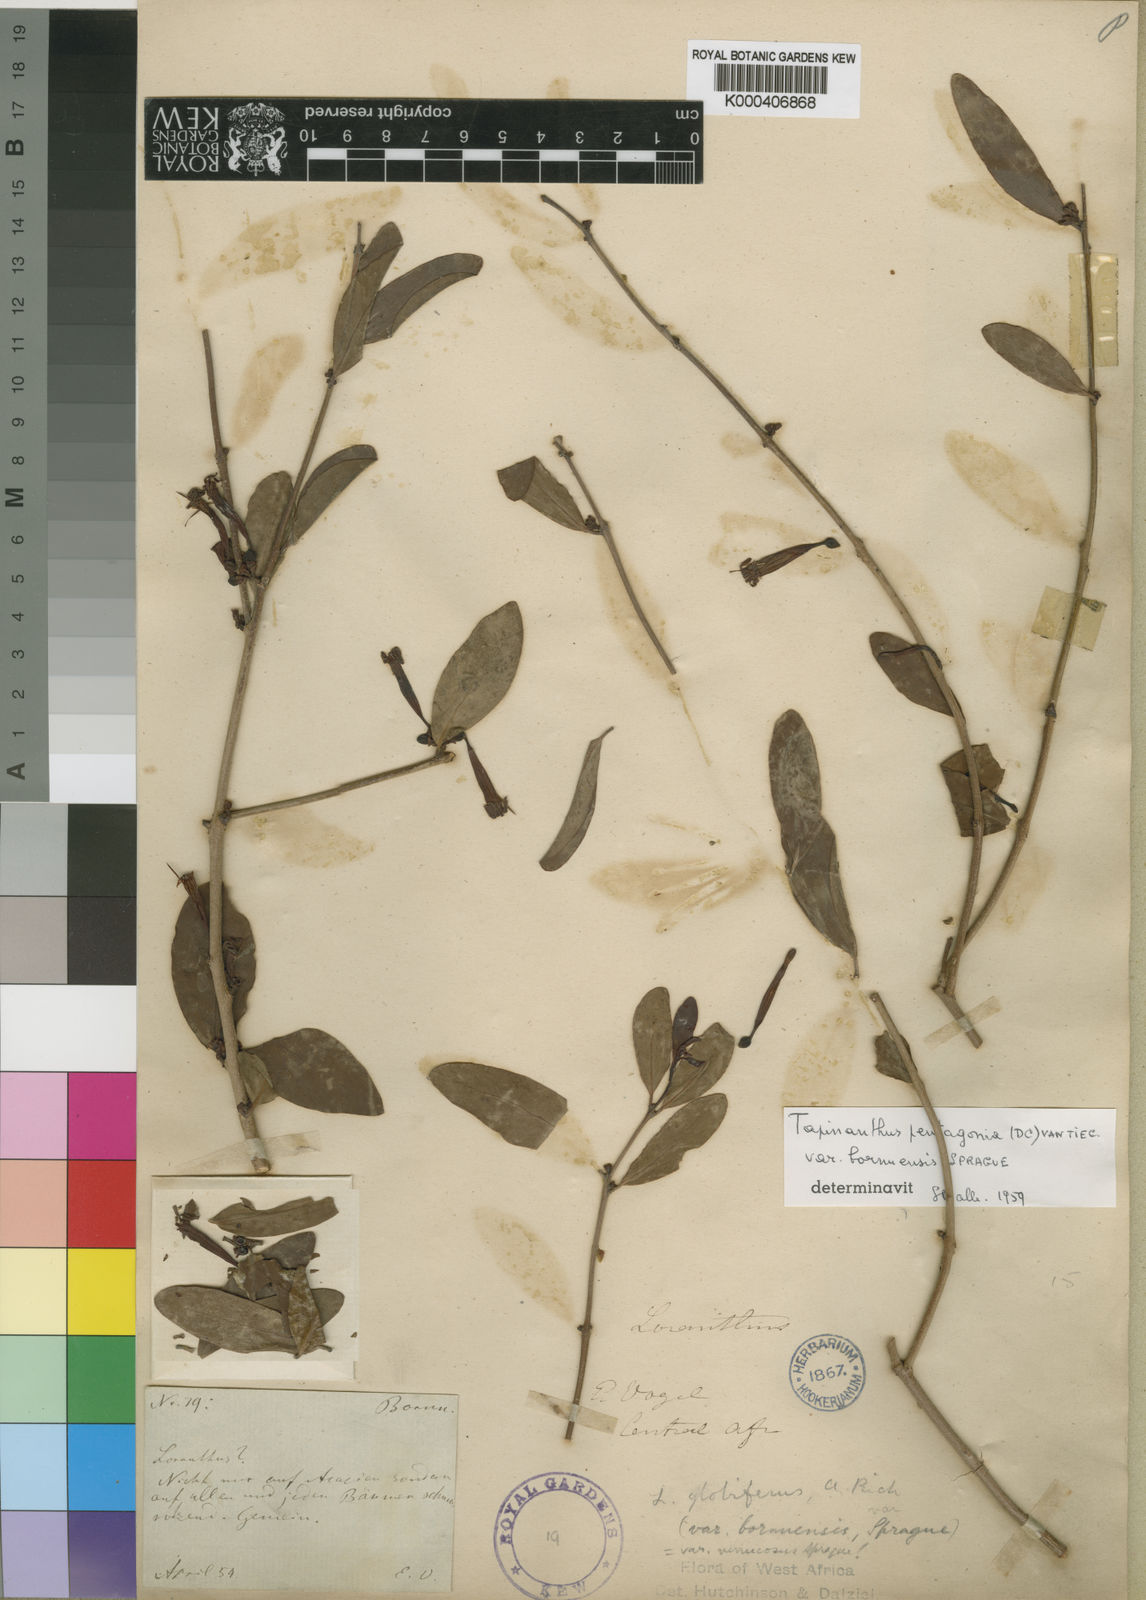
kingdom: Plantae
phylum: Tracheophyta
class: Magnoliopsida
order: Santalales
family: Loranthaceae
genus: Tapinanthus
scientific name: Tapinanthus
